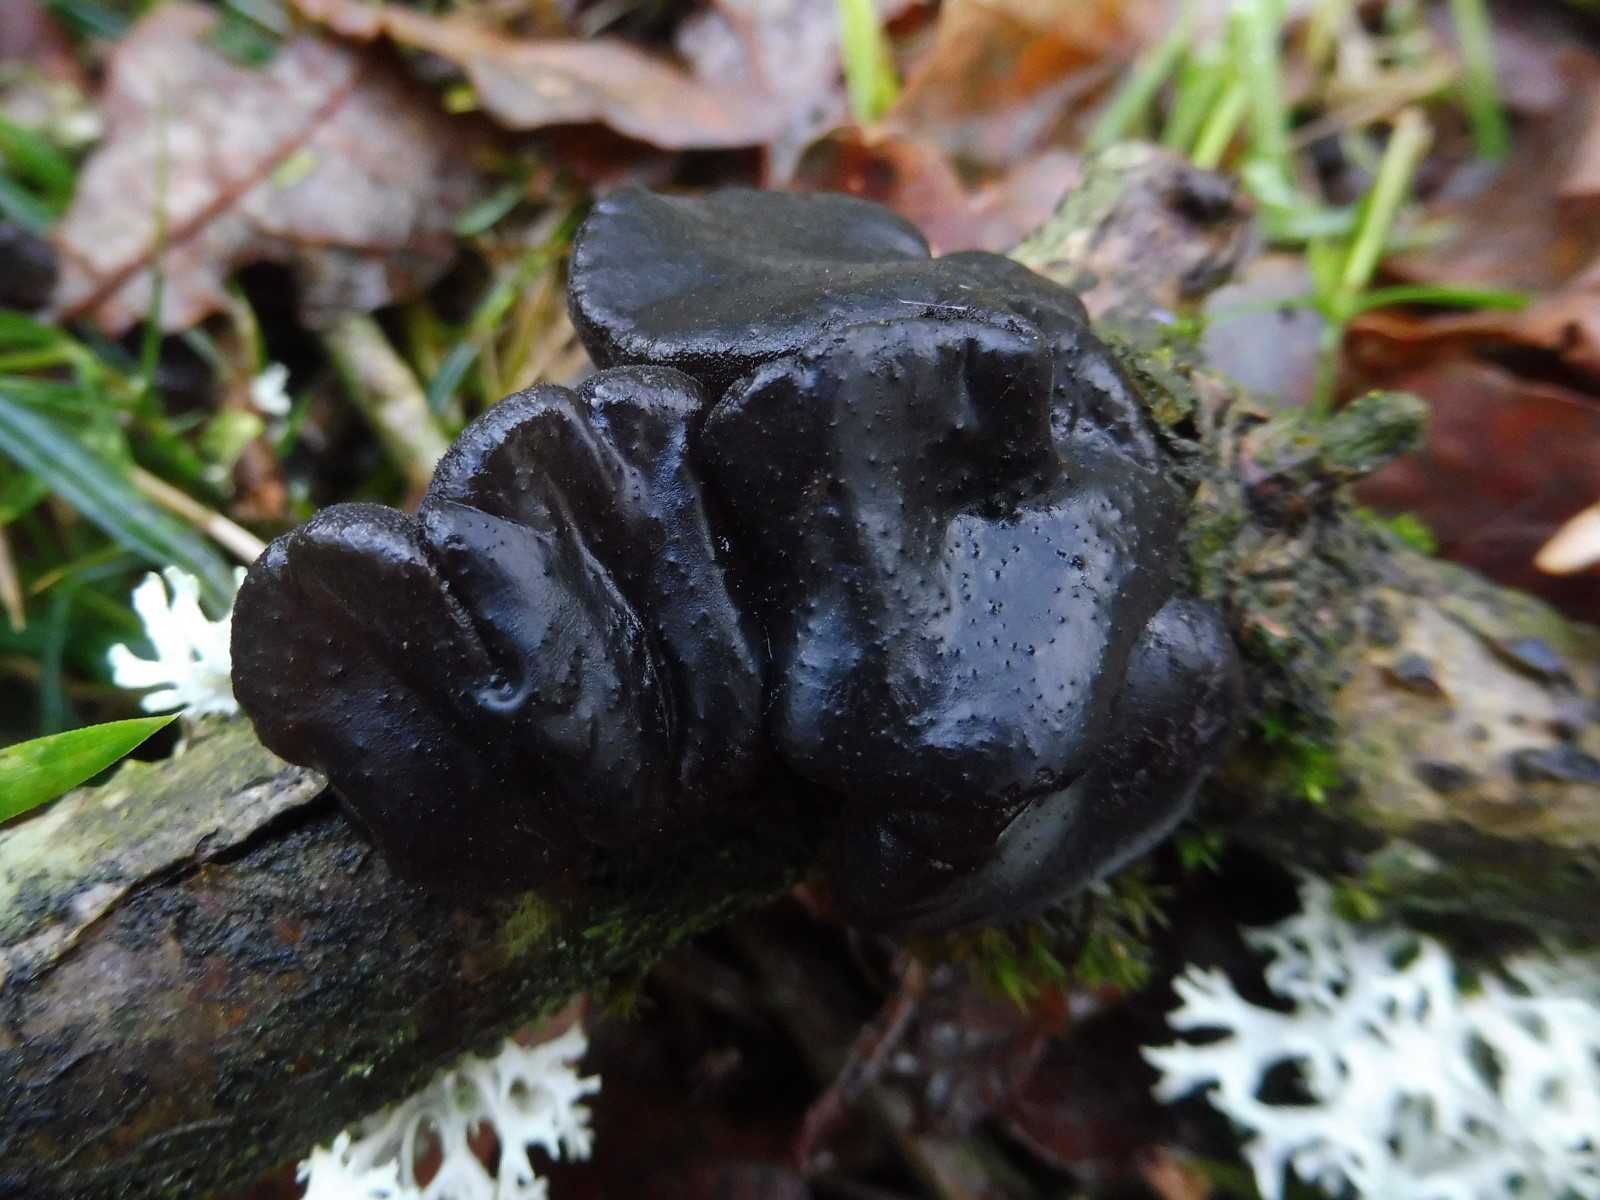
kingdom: Fungi
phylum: Basidiomycota
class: Agaricomycetes
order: Auriculariales
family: Auriculariaceae
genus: Exidia
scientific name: Exidia glandulosa
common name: ege-bævretop
